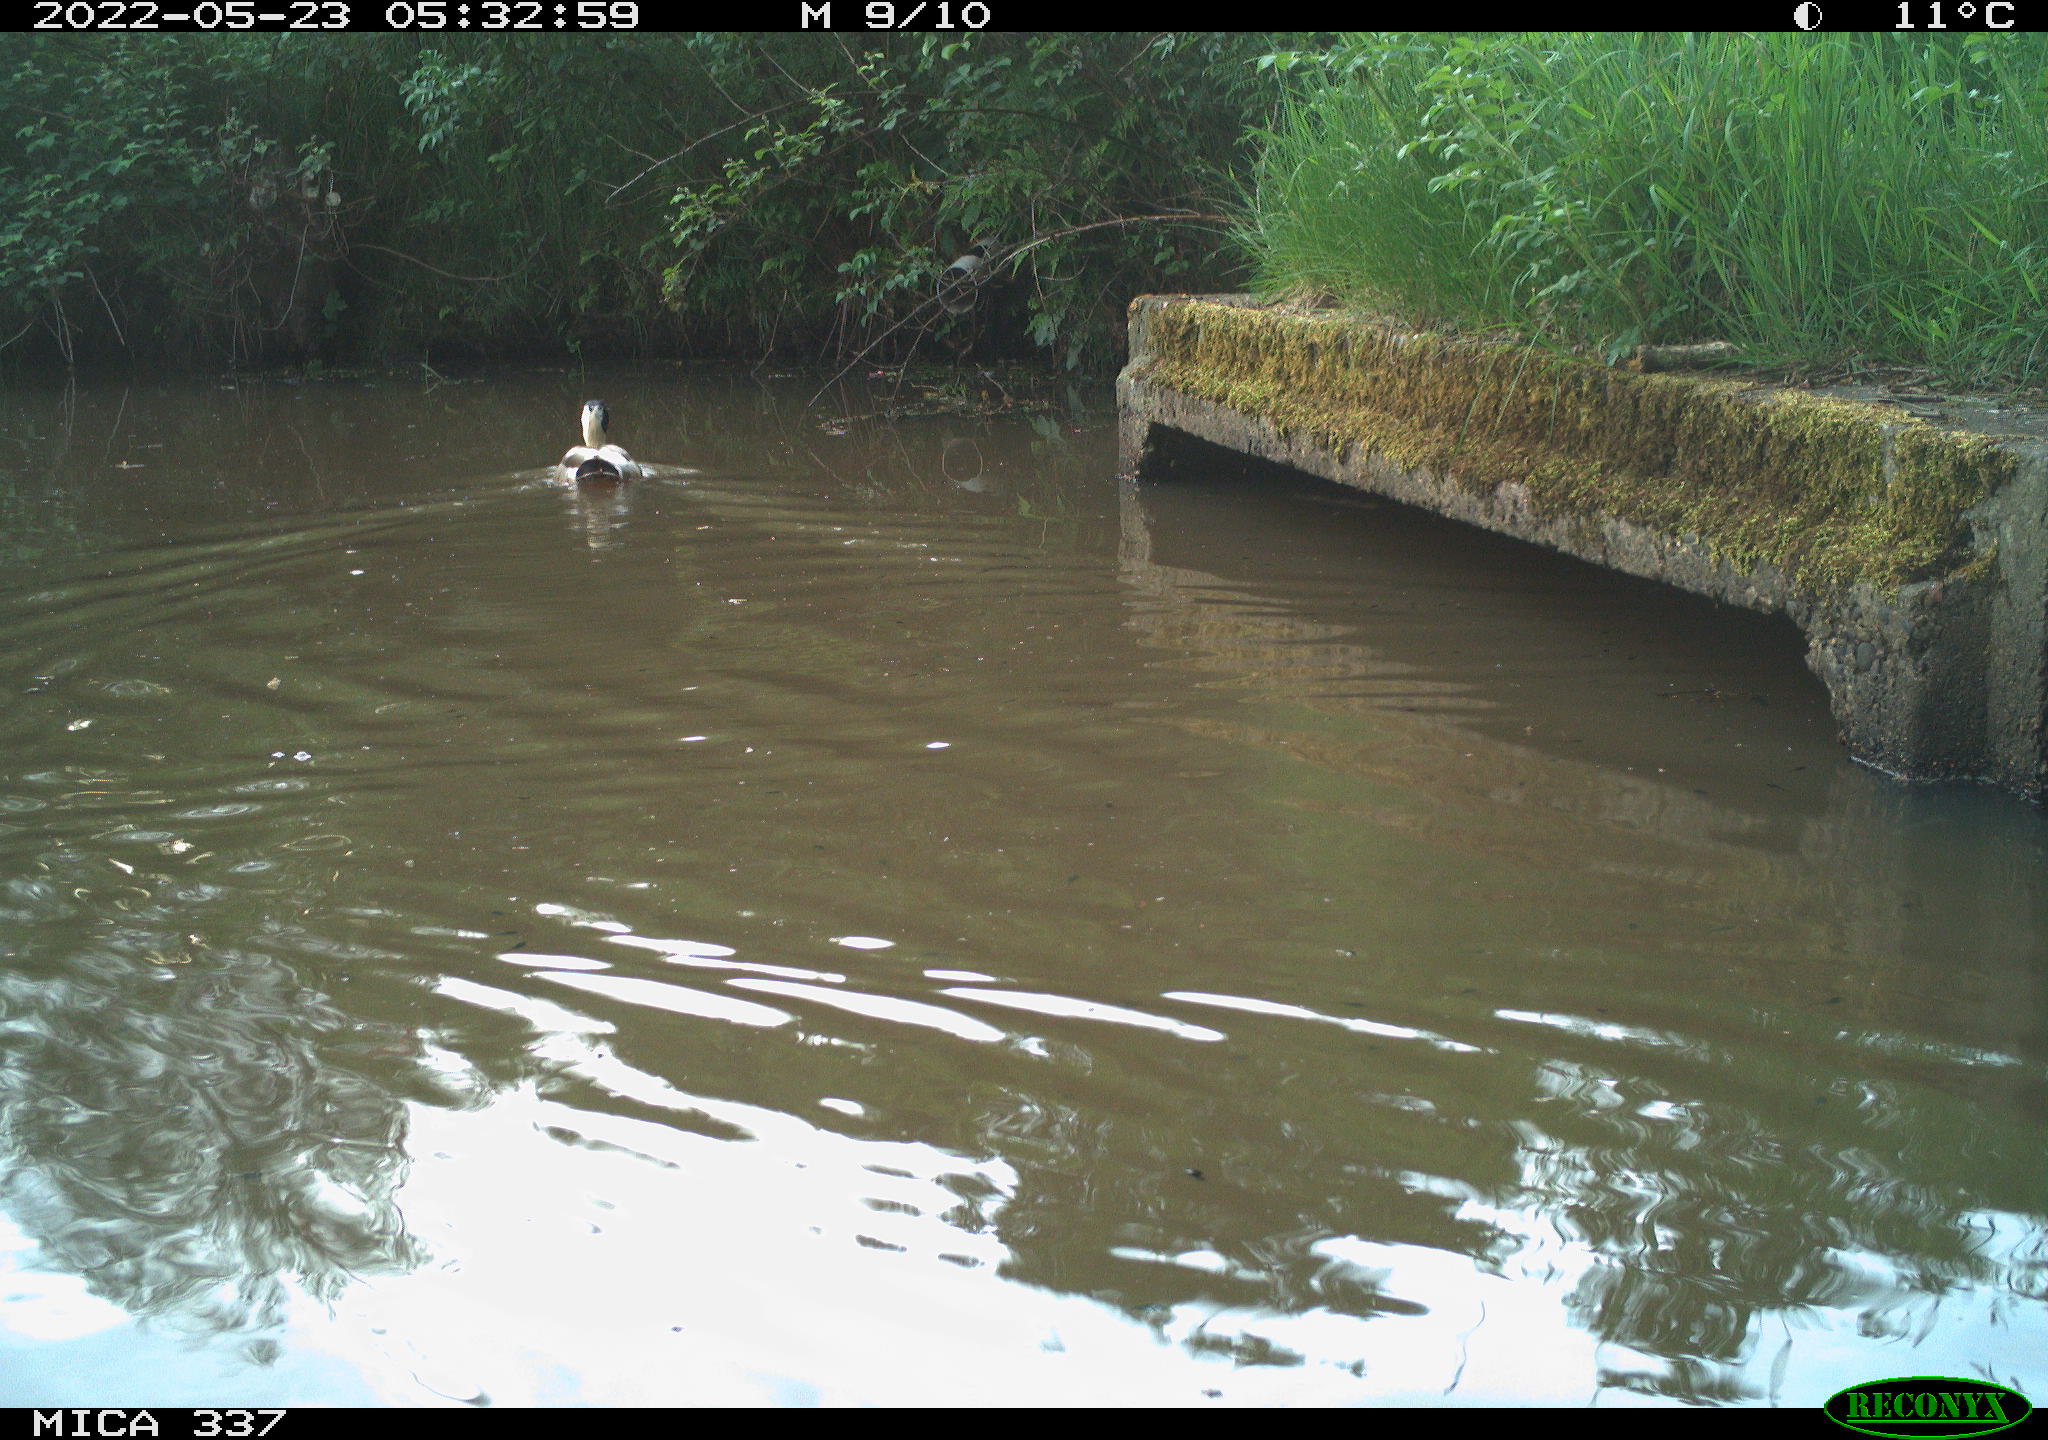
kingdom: Animalia
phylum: Chordata
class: Aves
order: Anseriformes
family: Anatidae
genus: Anas
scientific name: Anas platyrhynchos
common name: Mallard
